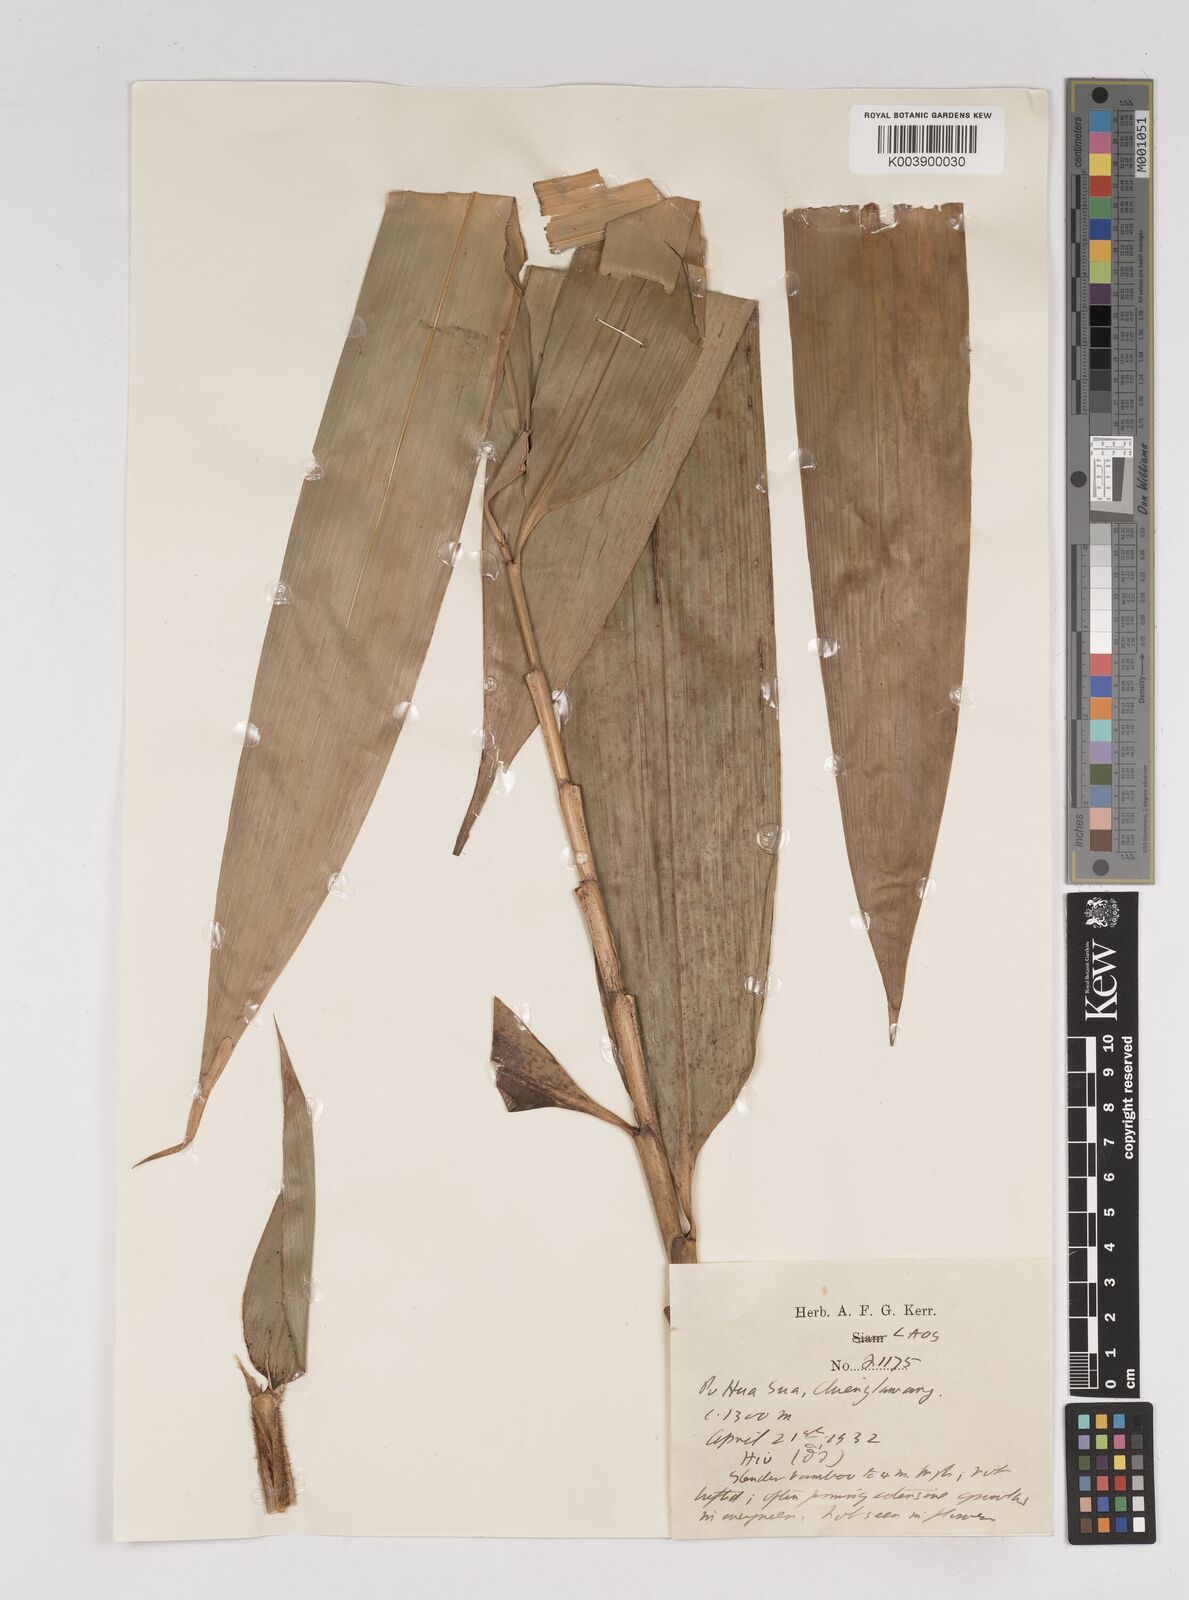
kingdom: Plantae
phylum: Tracheophyta
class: Liliopsida
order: Poales
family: Poaceae
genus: Gigantochloa
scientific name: Gigantochloa
